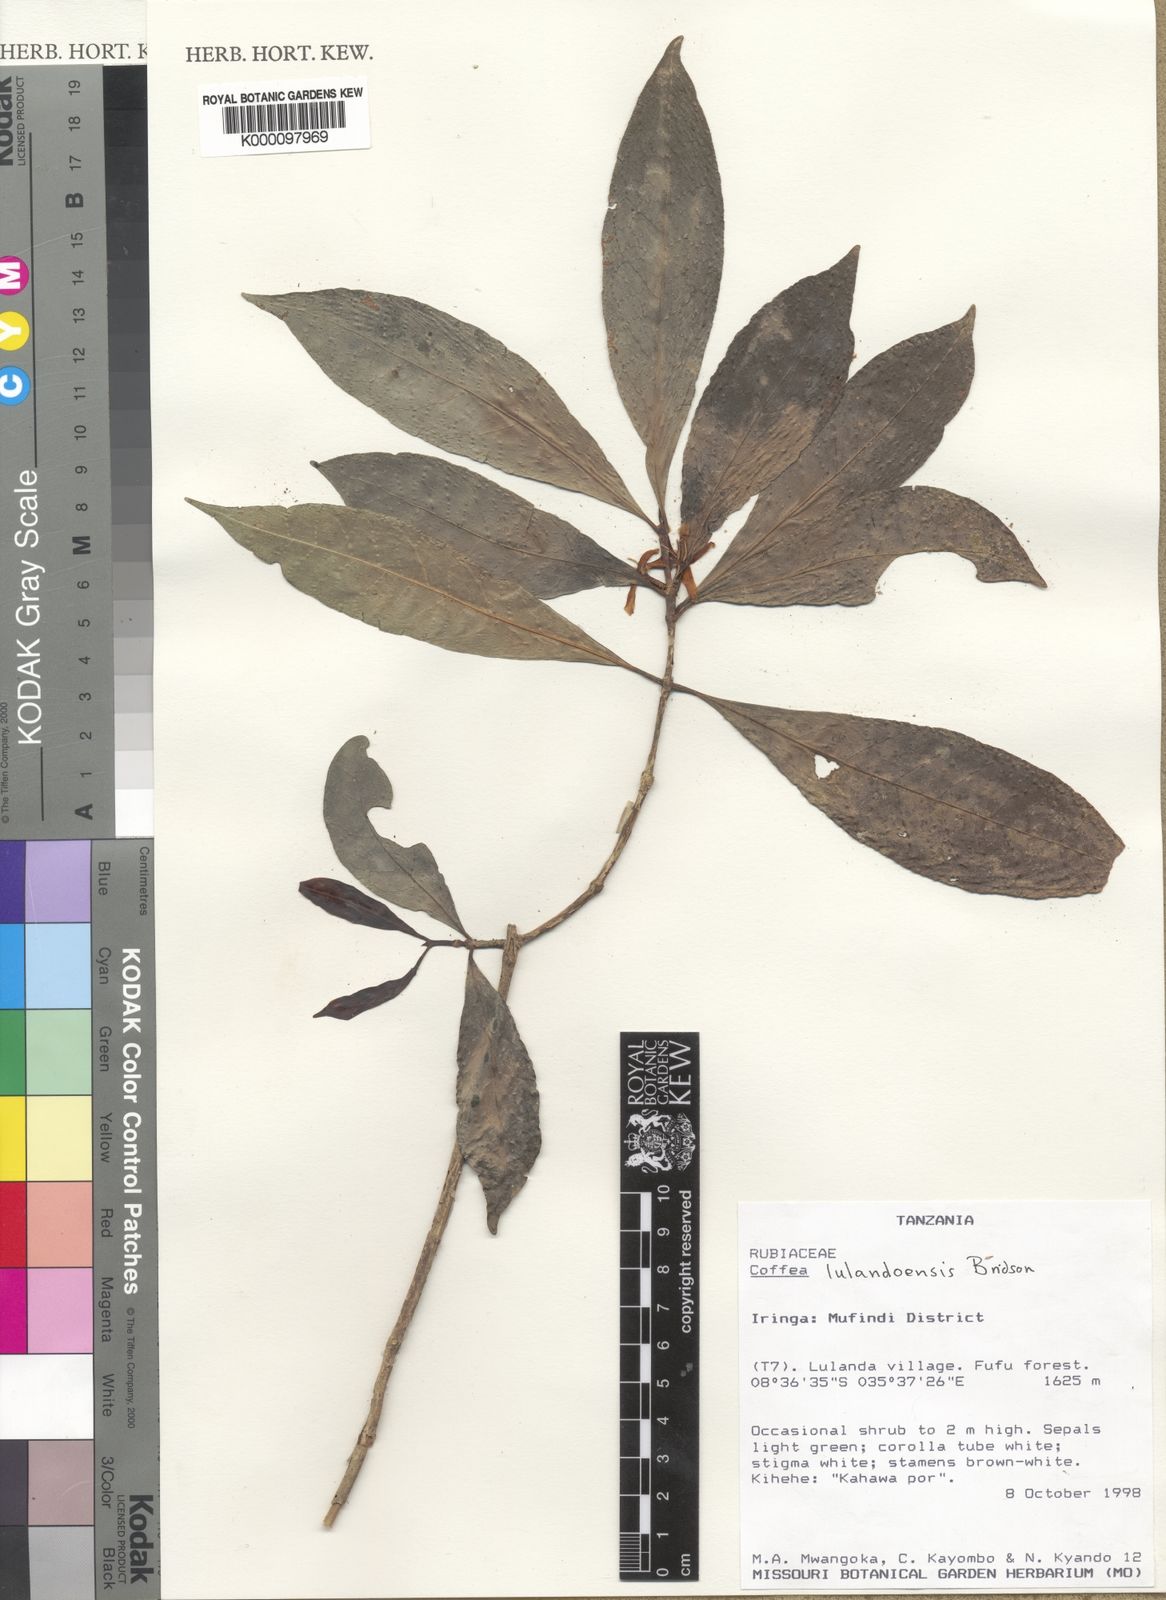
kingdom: Plantae
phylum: Tracheophyta
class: Magnoliopsida
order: Gentianales
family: Rubiaceae
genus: Coffea
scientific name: Coffea lulandoensis
